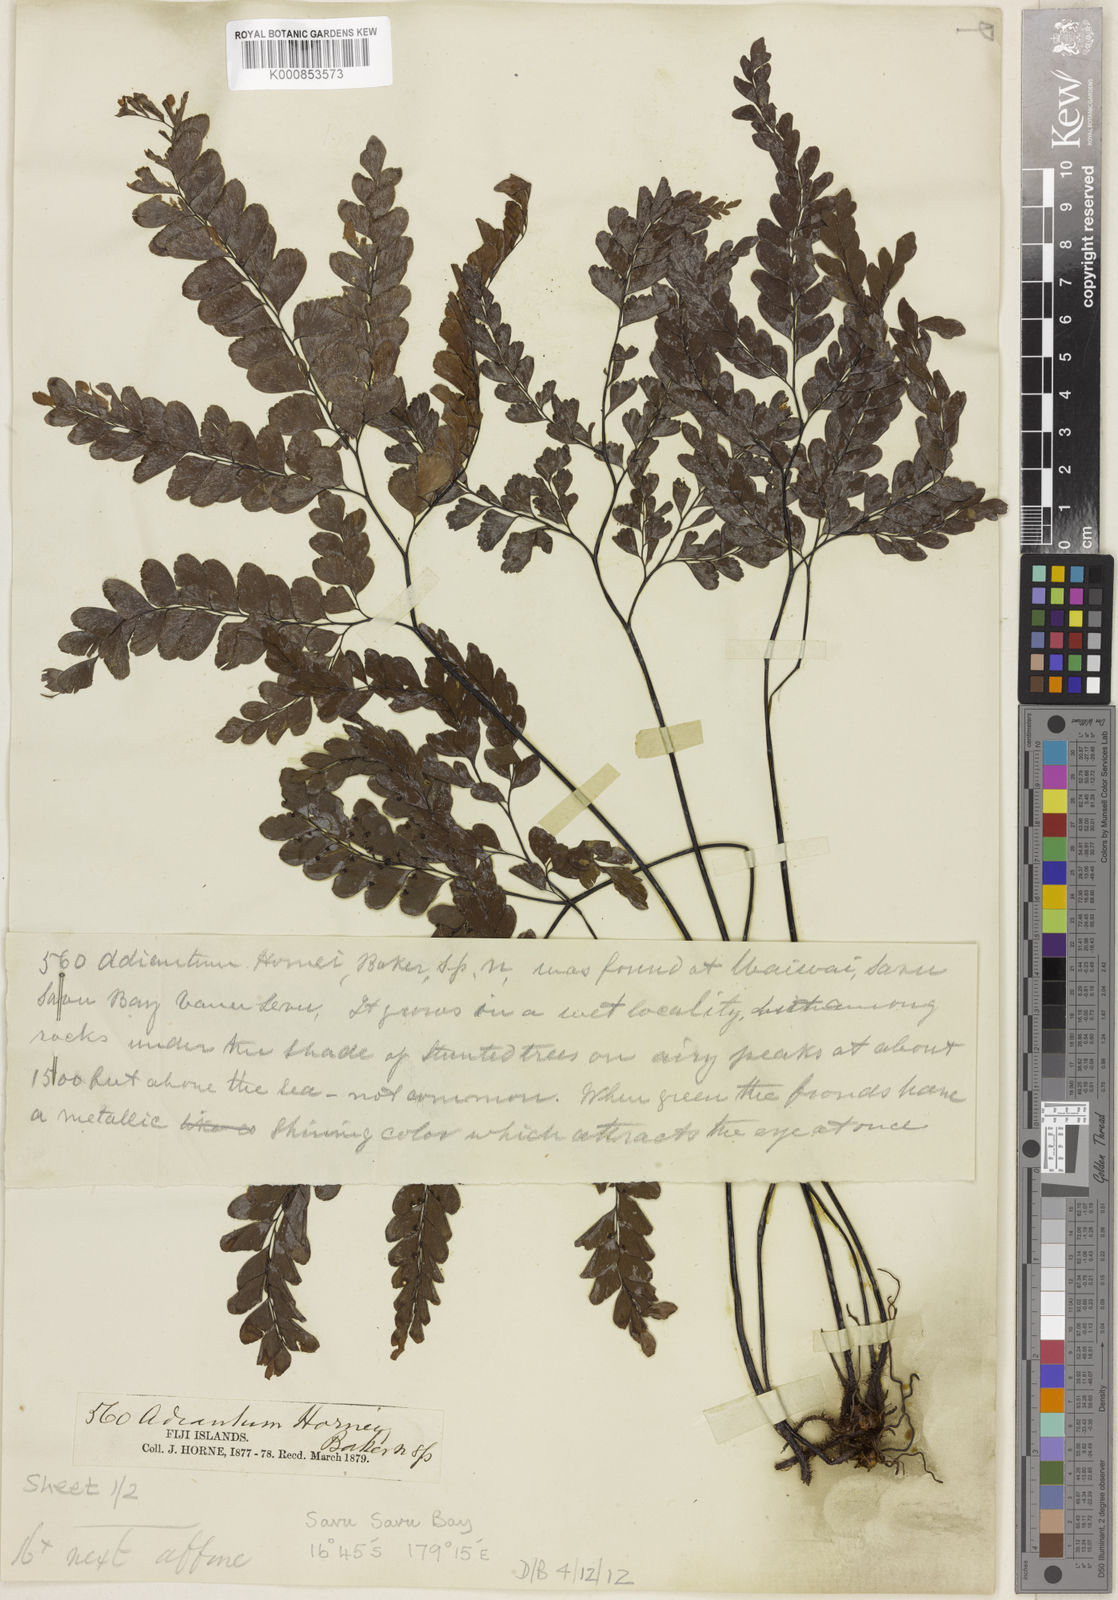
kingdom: Plantae
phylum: Tracheophyta
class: Polypodiopsida
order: Polypodiales
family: Pteridaceae
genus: Adiantum
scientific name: Adiantum hornei
